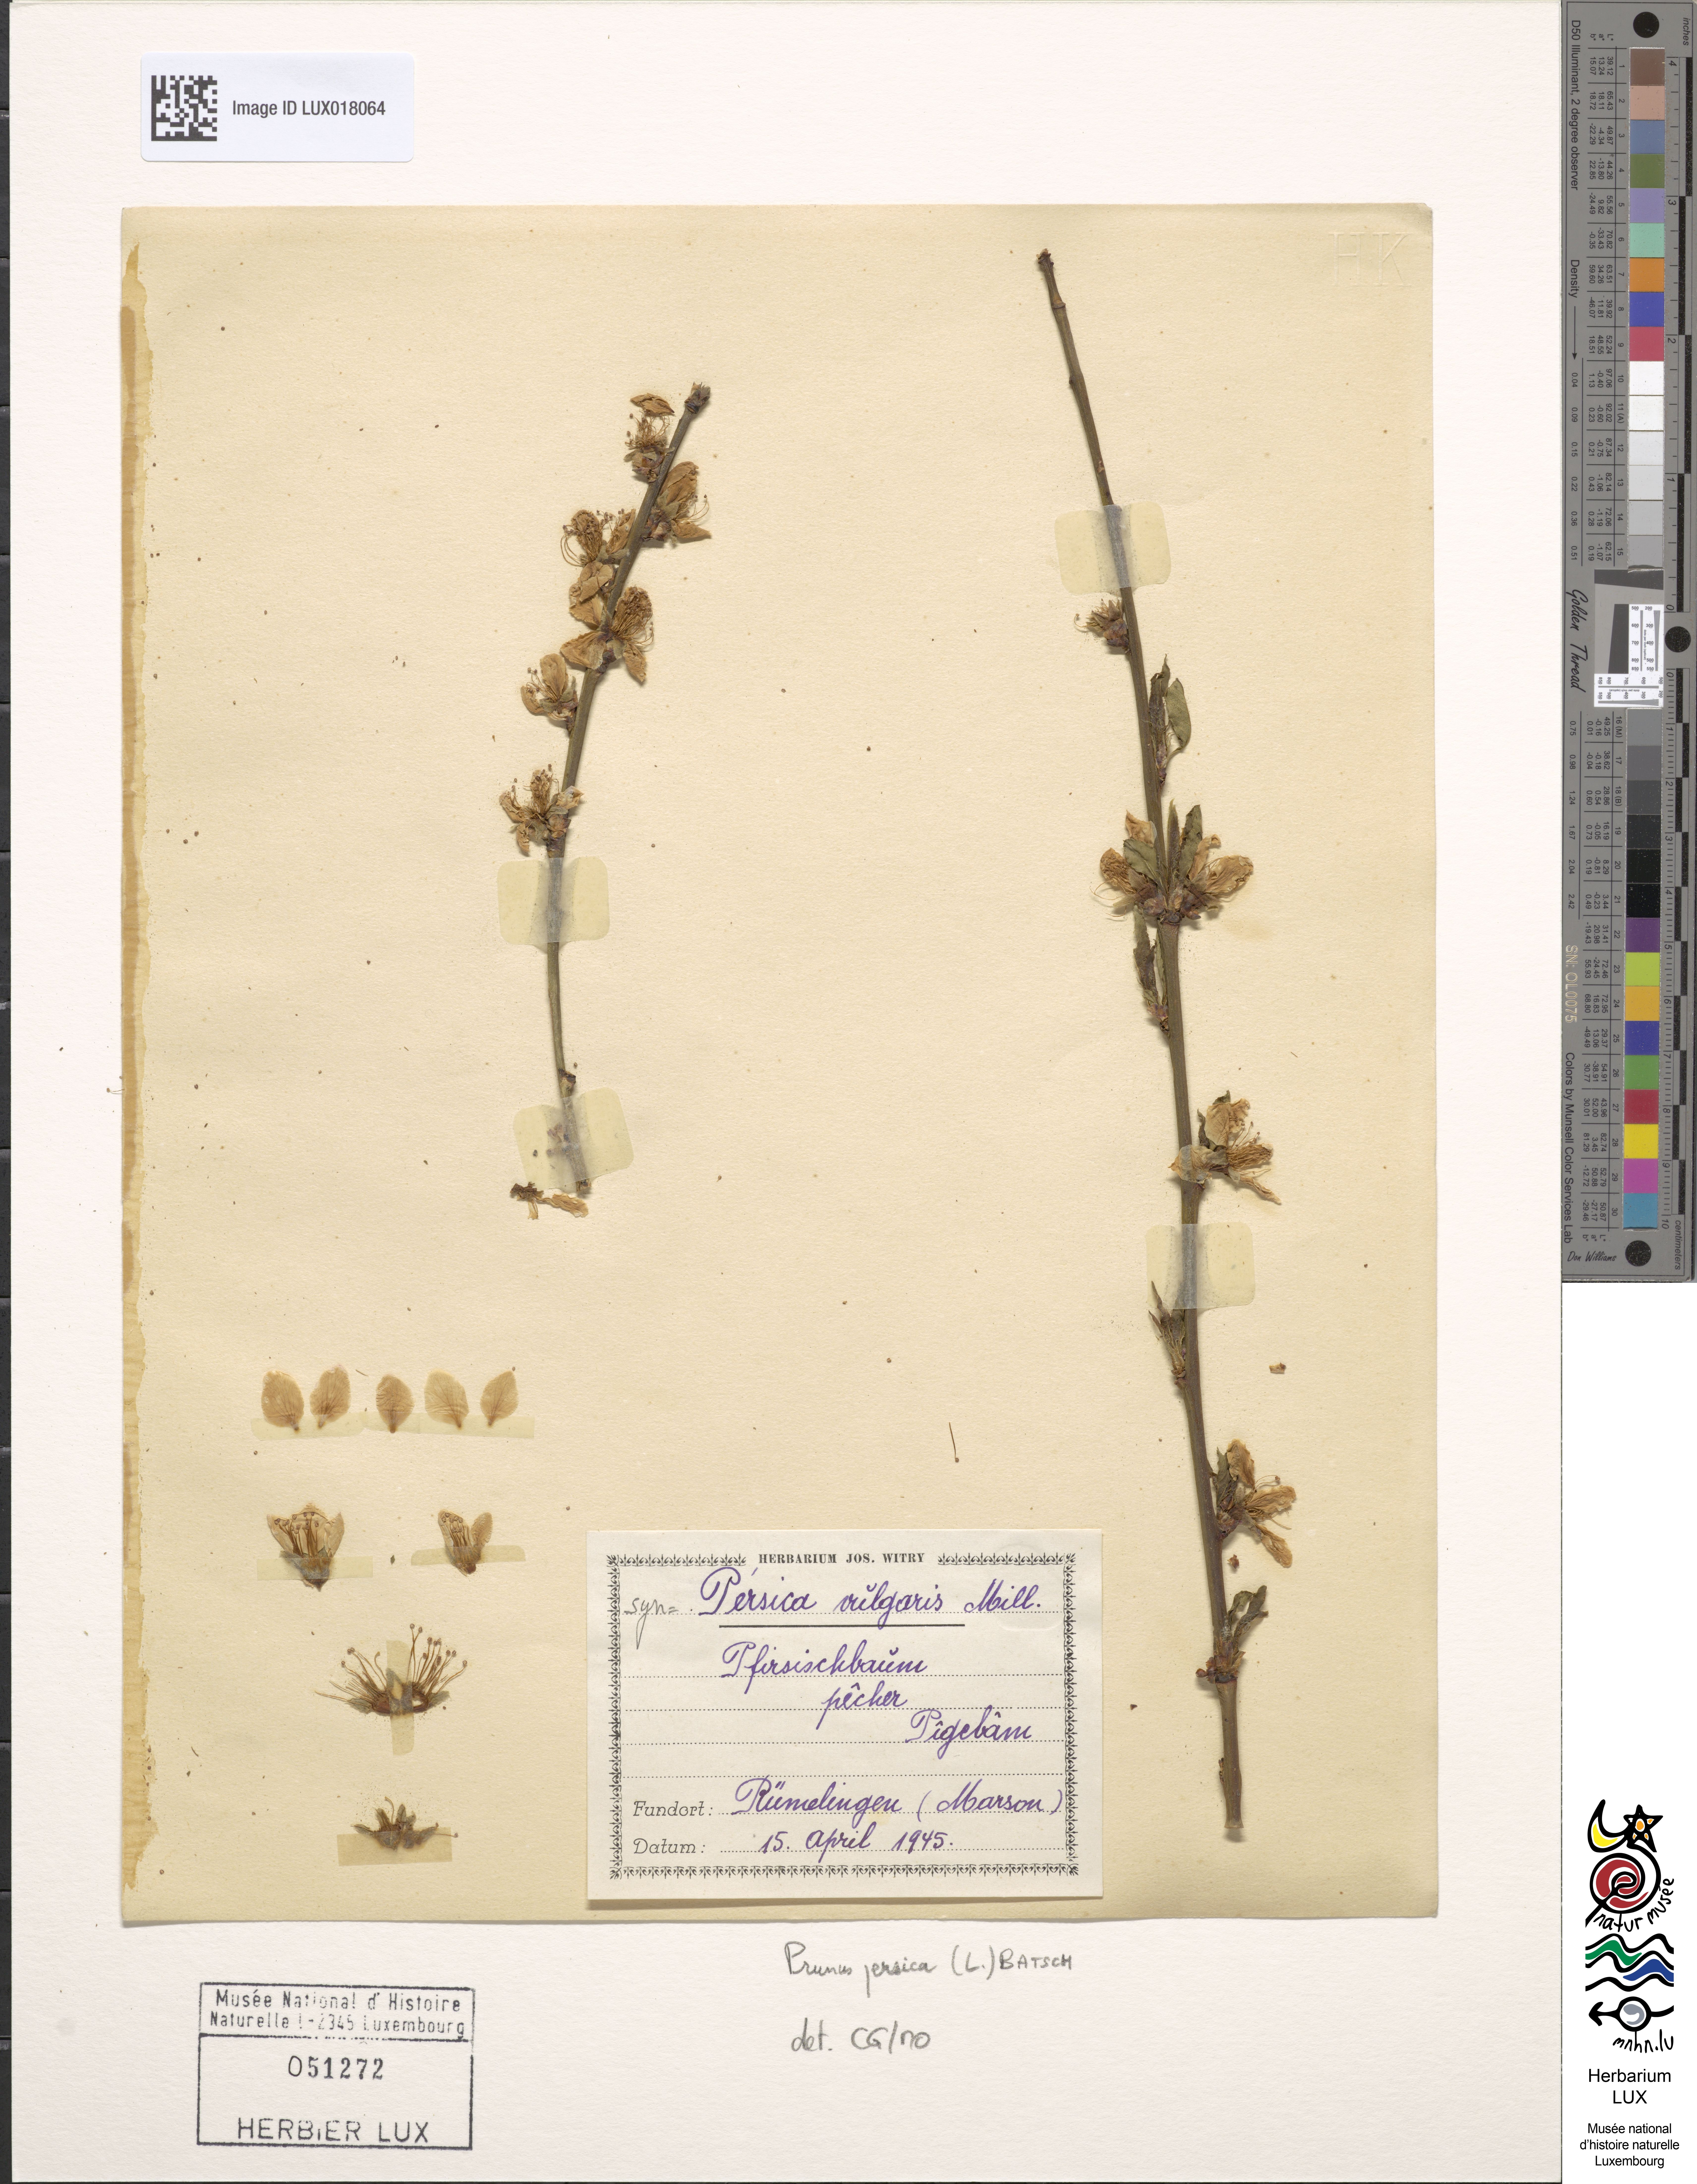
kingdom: Plantae
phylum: Tracheophyta
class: Magnoliopsida
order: Rosales
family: Rosaceae
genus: Prunus
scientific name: Prunus persica
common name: Peach
